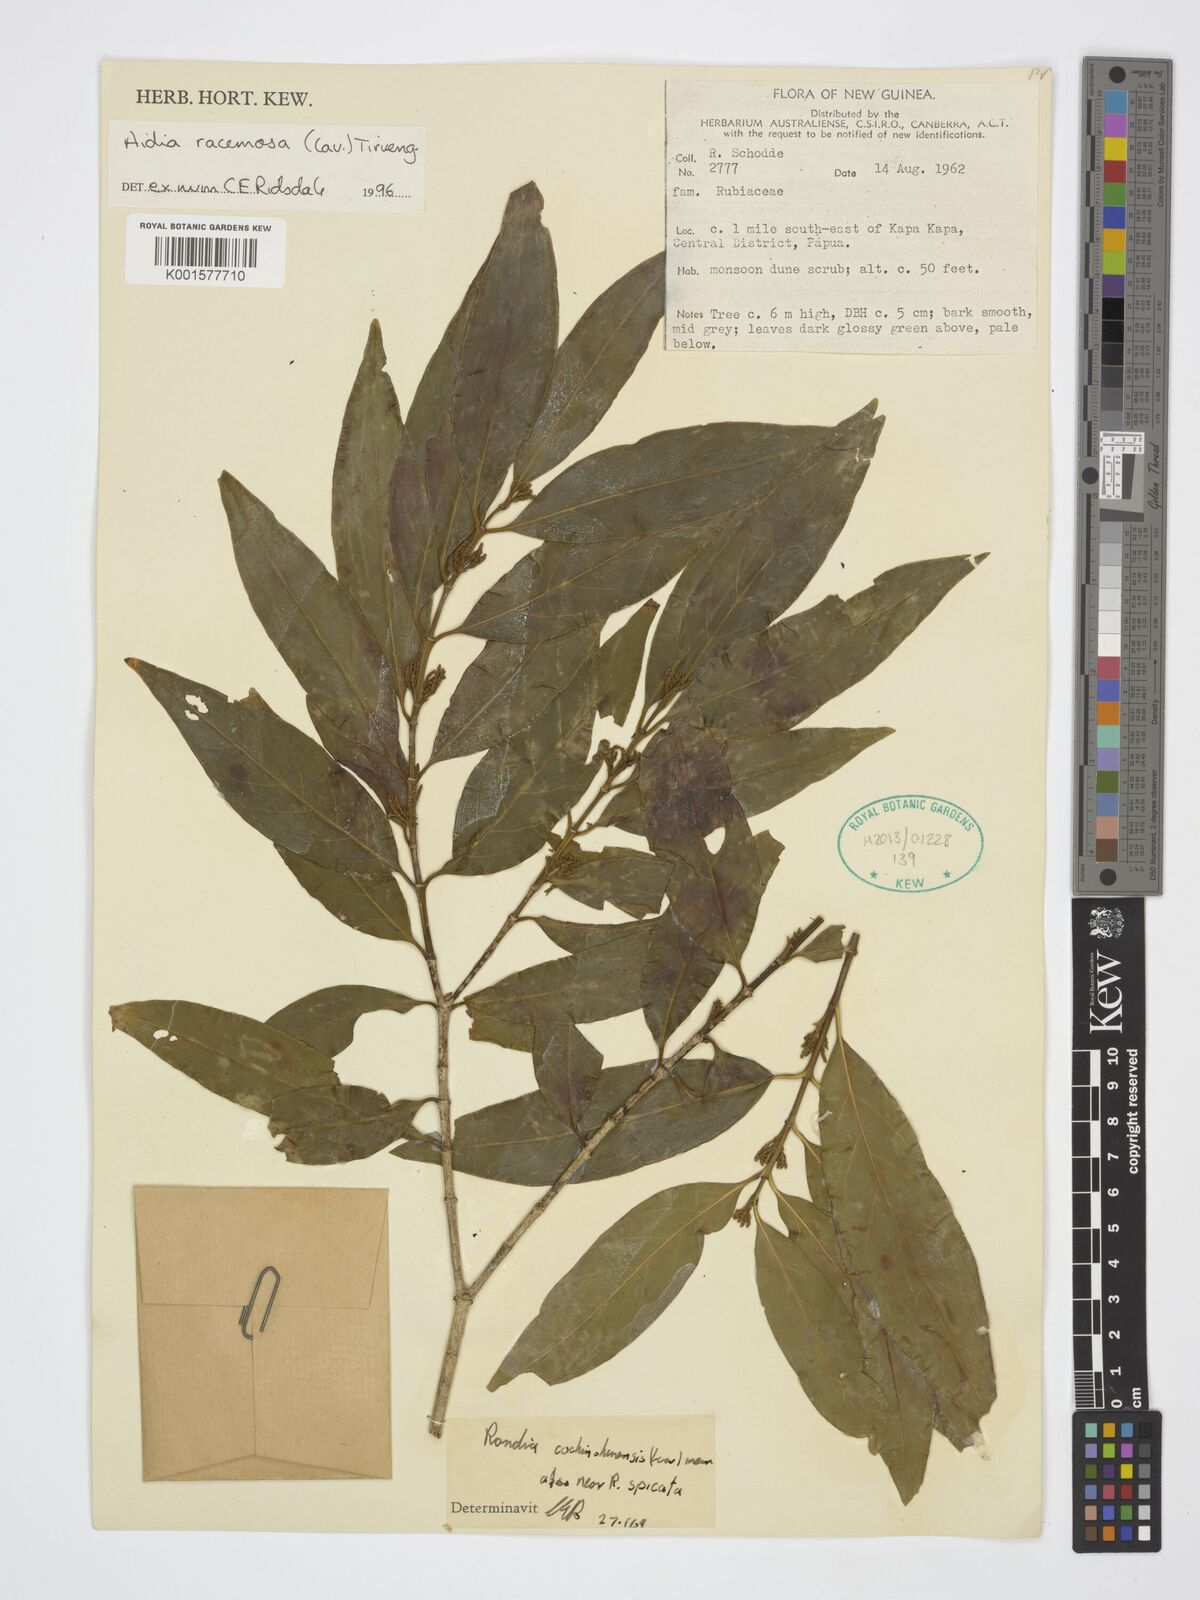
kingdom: Plantae
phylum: Tracheophyta
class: Magnoliopsida
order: Gentianales
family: Rubiaceae
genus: Aidia
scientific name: Aidia racemosa
